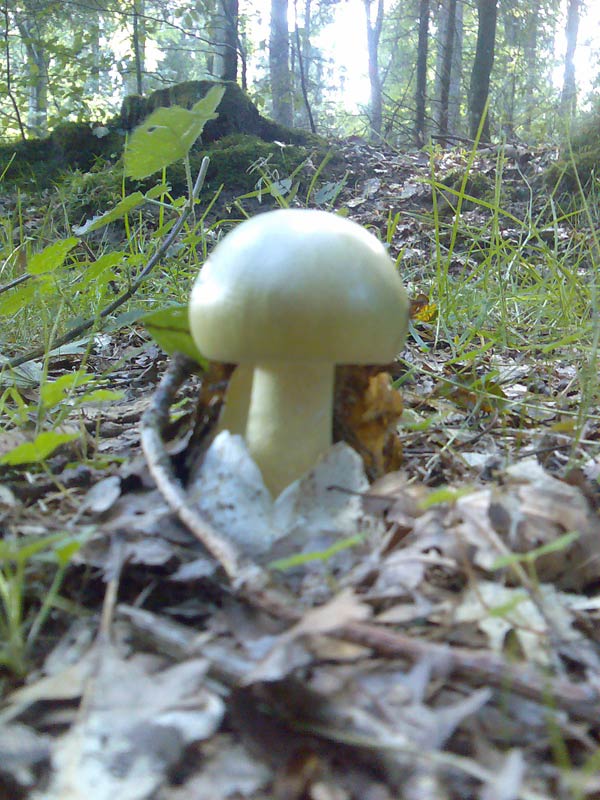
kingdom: Fungi
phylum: Basidiomycota
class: Agaricomycetes
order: Agaricales
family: Amanitaceae
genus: Amanita
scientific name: Amanita phalloides
